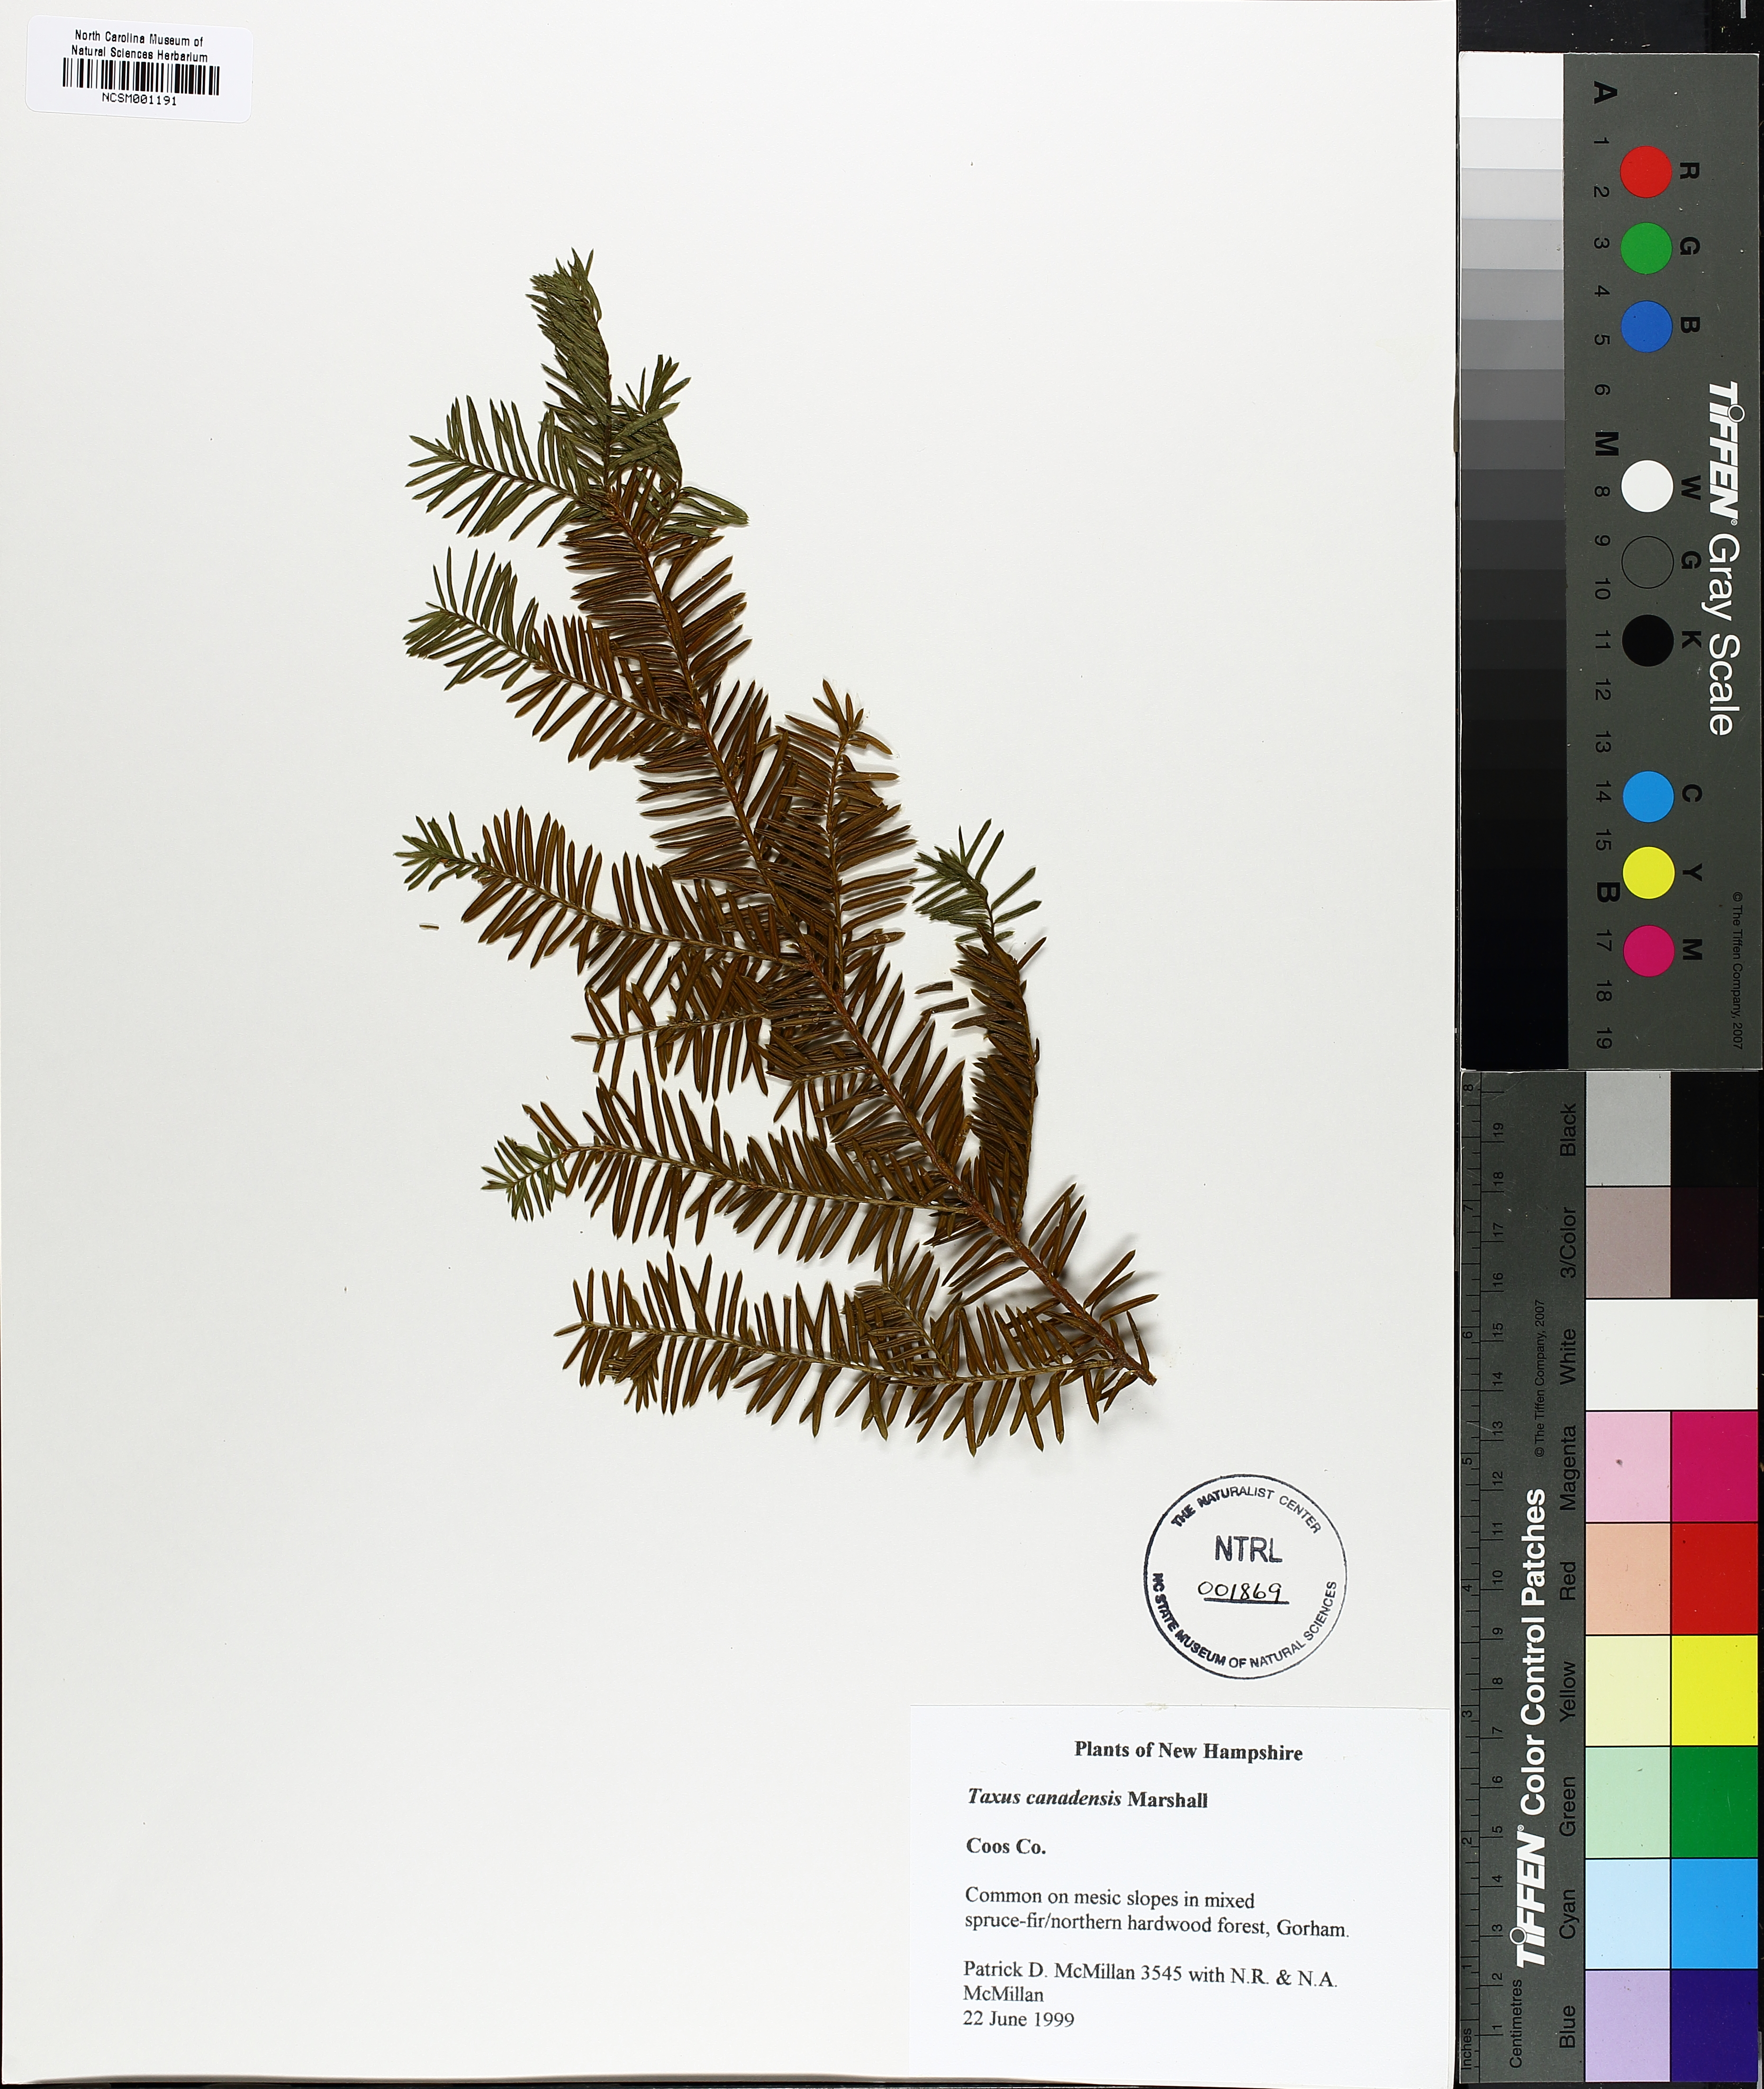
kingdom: Plantae
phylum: Tracheophyta
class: Pinopsida
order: Pinales
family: Taxaceae
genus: Taxus
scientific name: Taxus canadensis
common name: American yew
